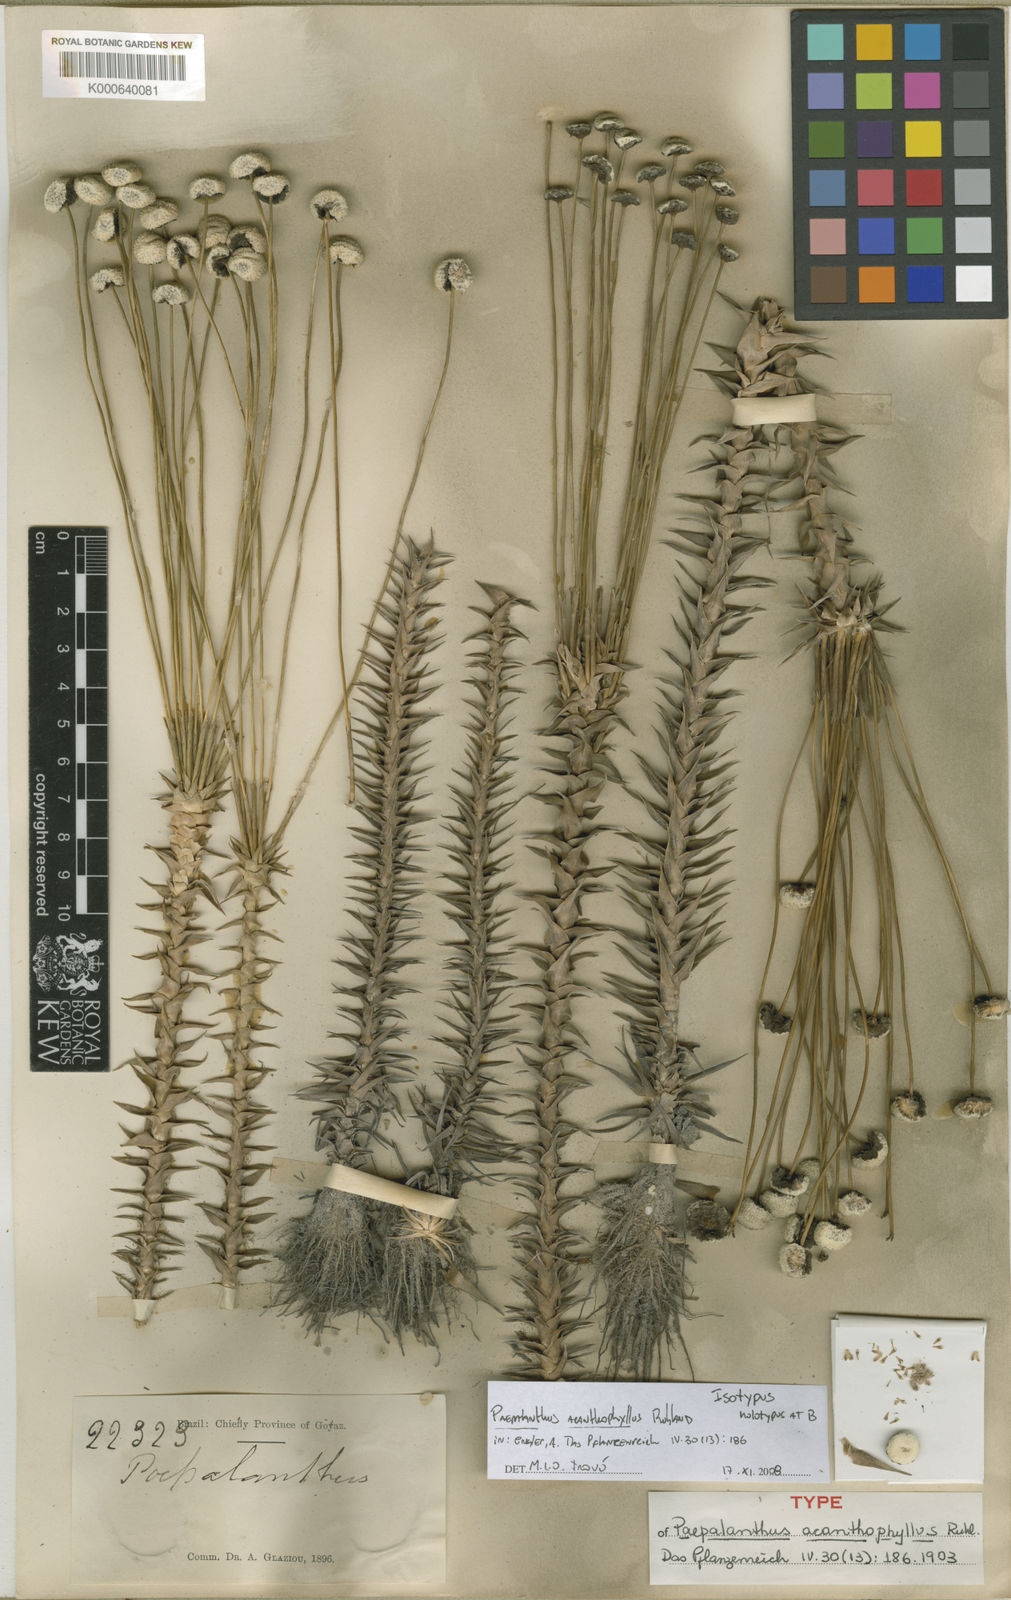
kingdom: Plantae
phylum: Tracheophyta
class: Liliopsida
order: Poales
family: Eriocaulaceae
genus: Paepalanthus
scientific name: Paepalanthus acanthophyllus
